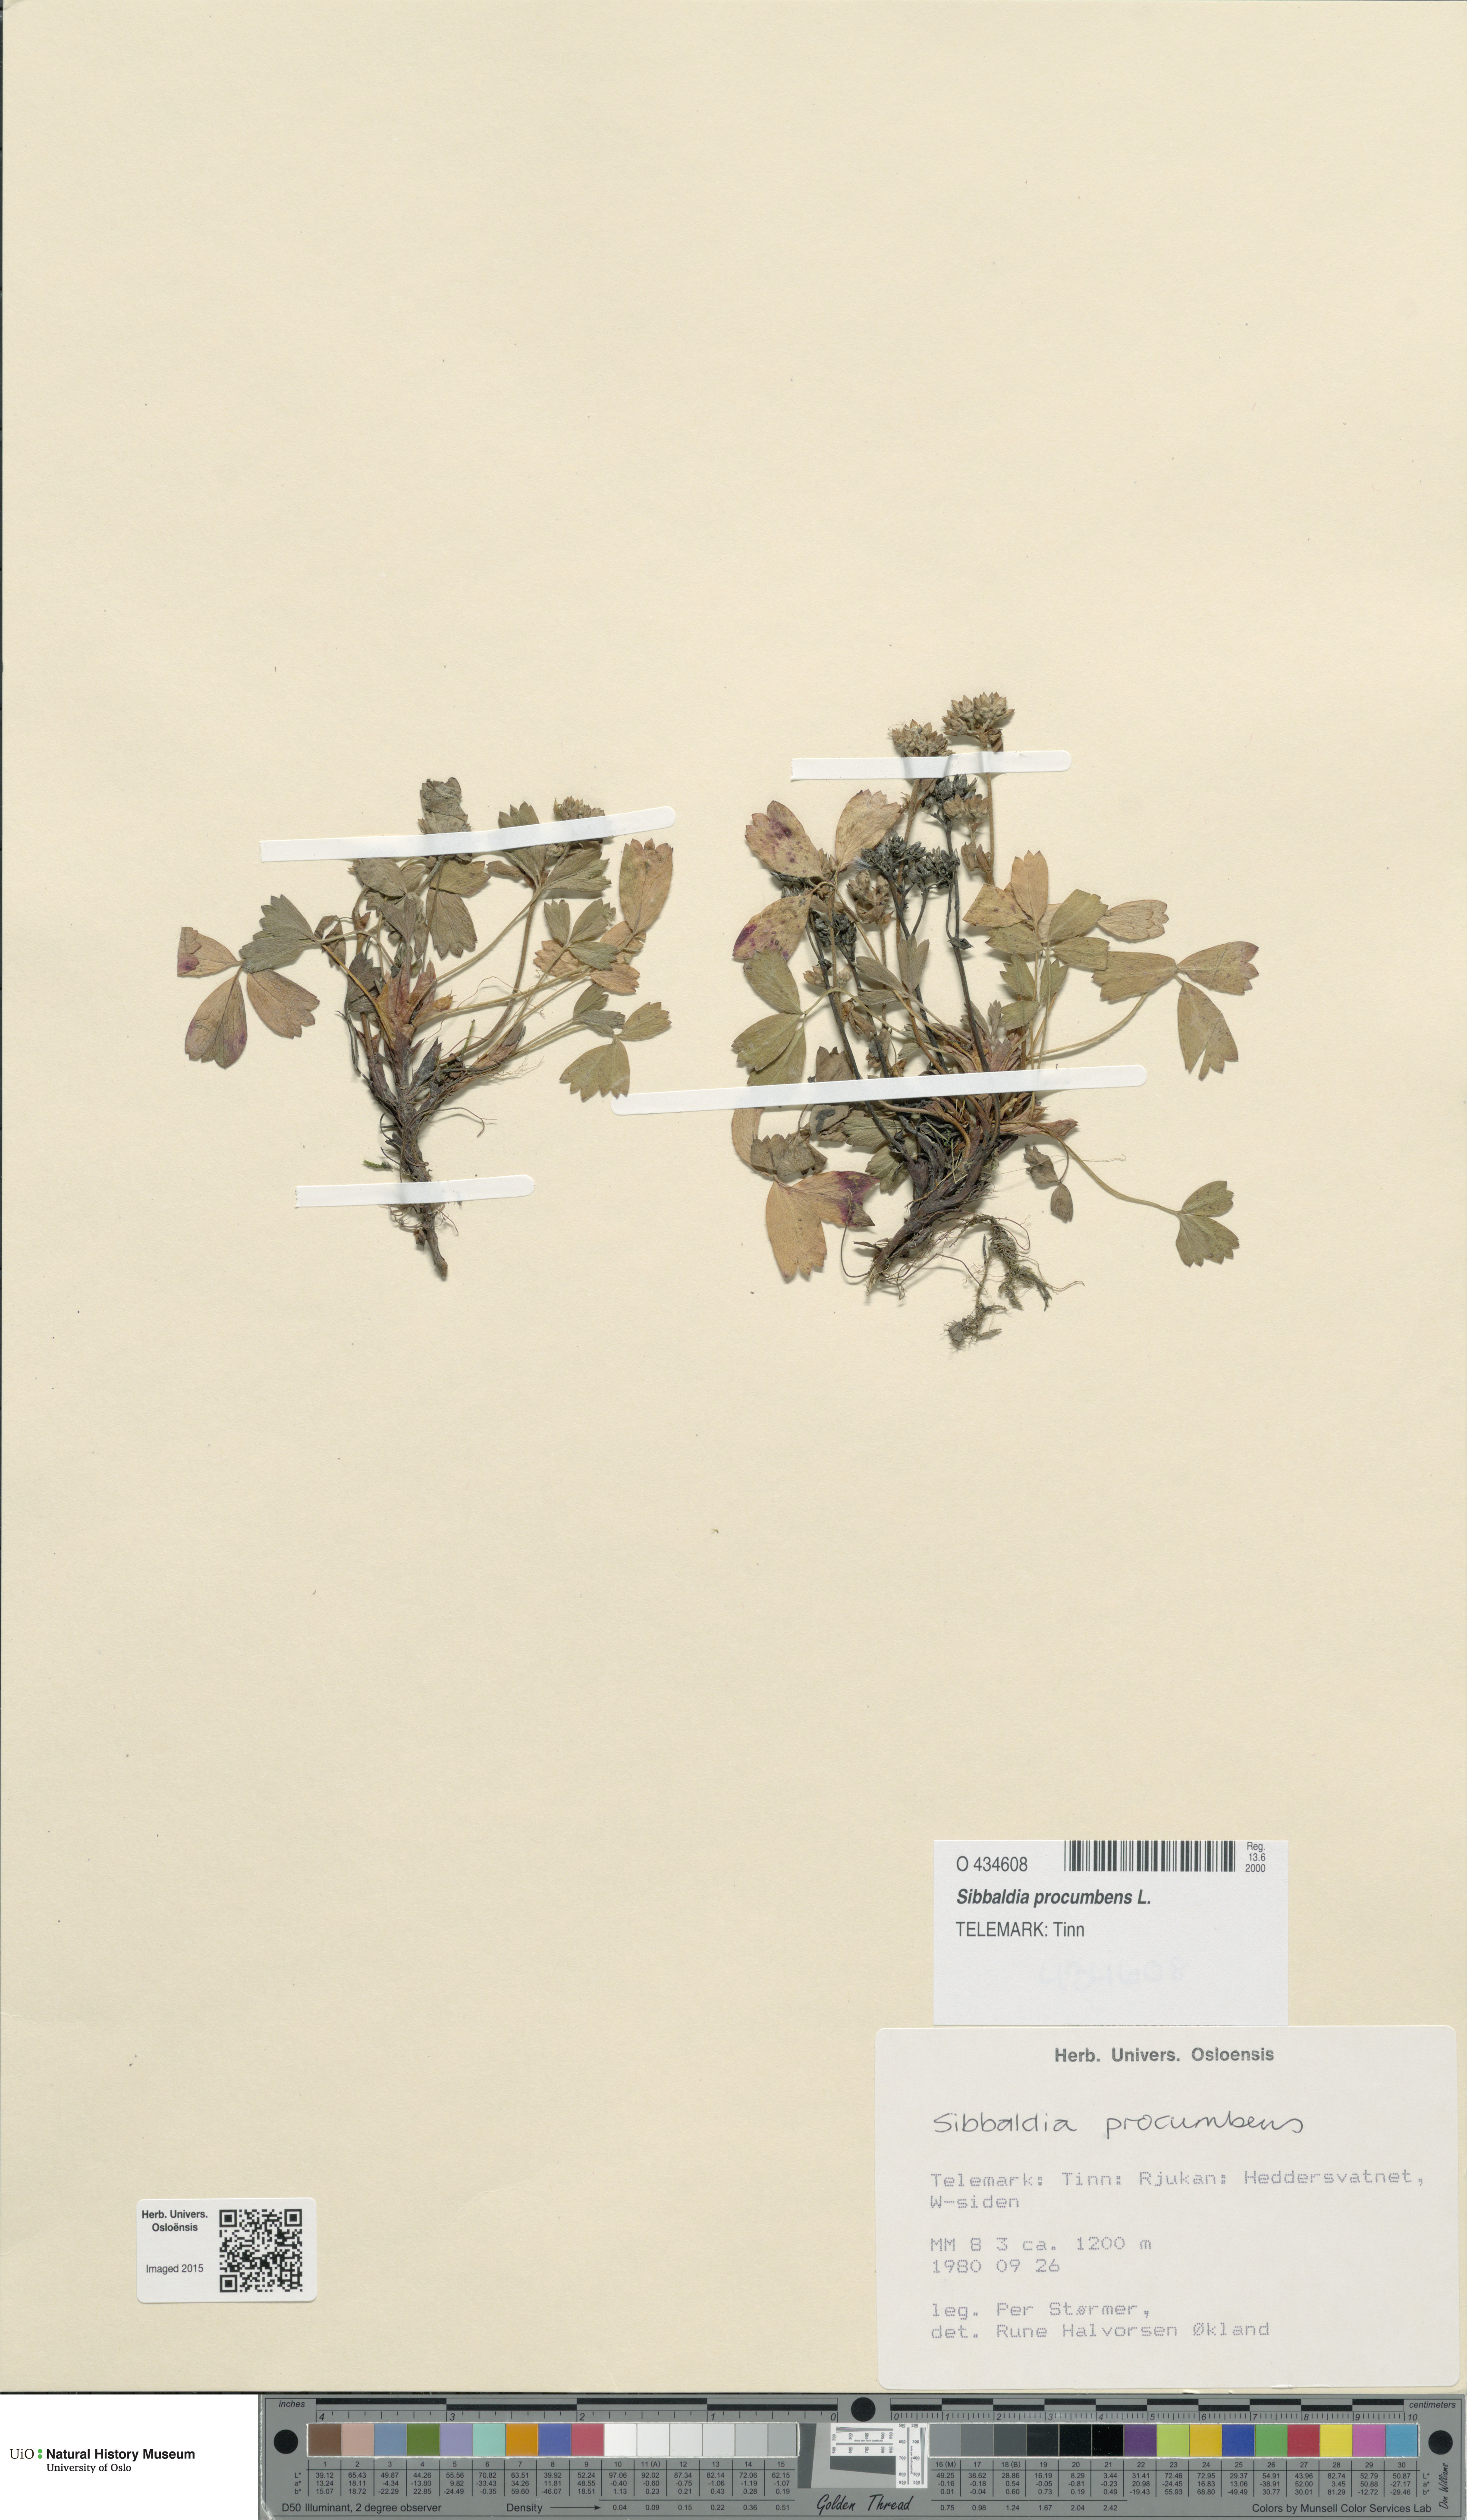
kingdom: Plantae
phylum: Tracheophyta
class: Magnoliopsida
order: Rosales
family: Rosaceae
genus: Sibbaldia
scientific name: Sibbaldia procumbens
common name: Creeping sibbaldia
